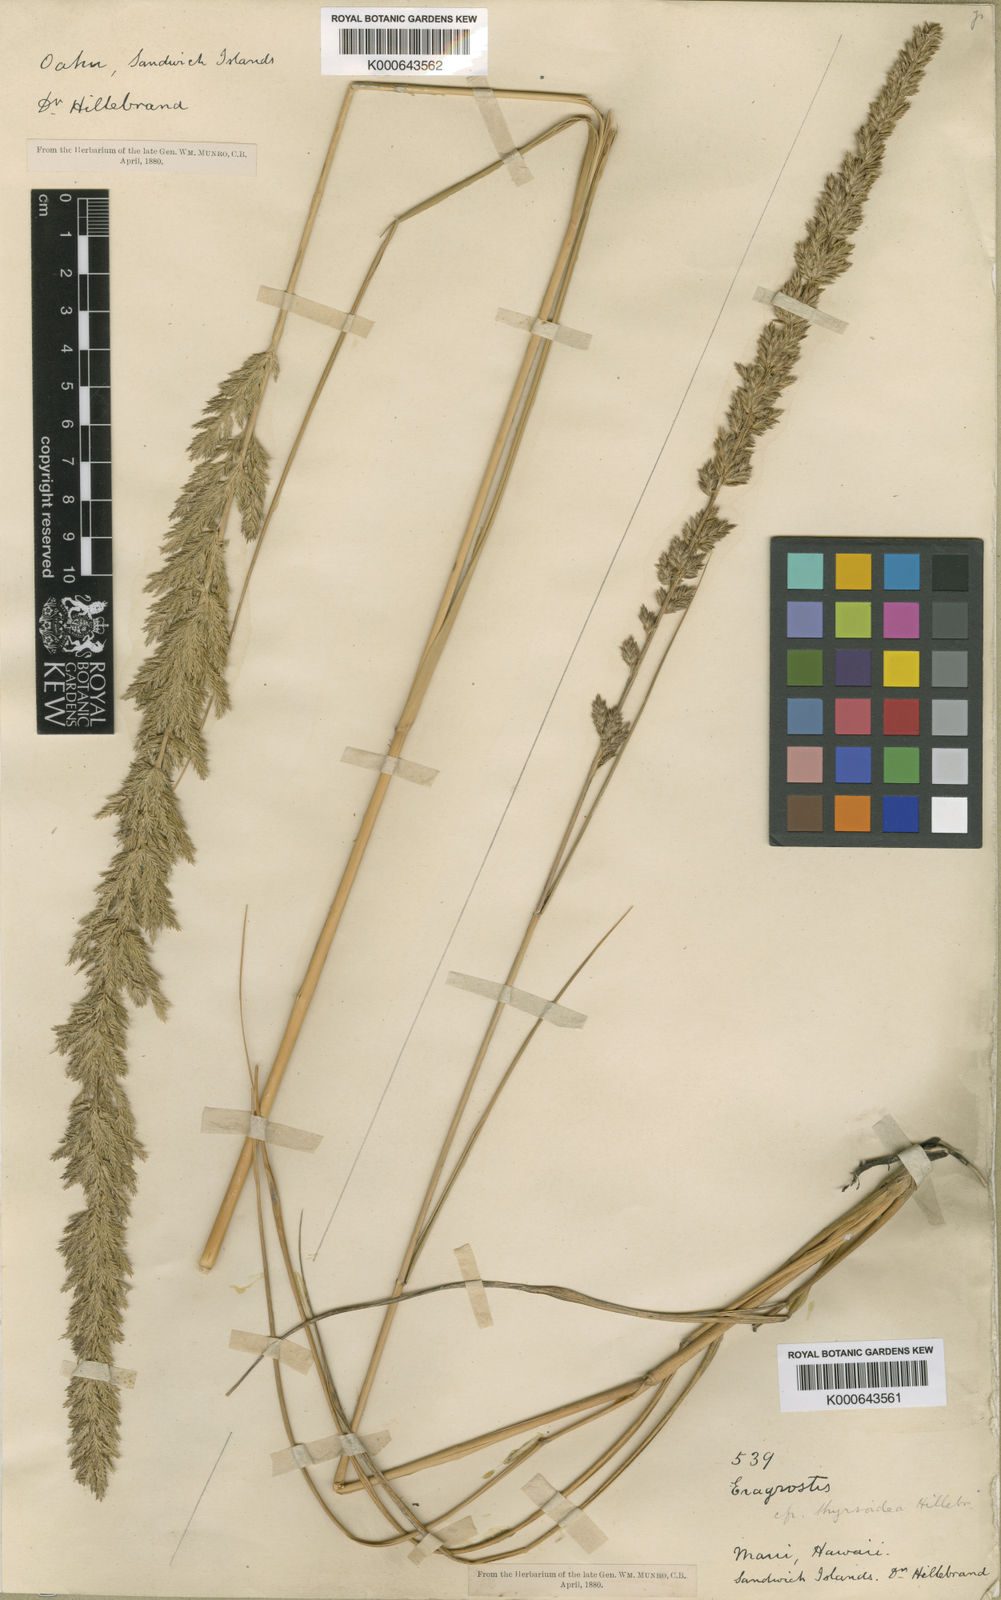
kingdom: Plantae
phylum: Tracheophyta
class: Liliopsida
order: Poales
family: Poaceae
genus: Eragrostis
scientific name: Eragrostis
